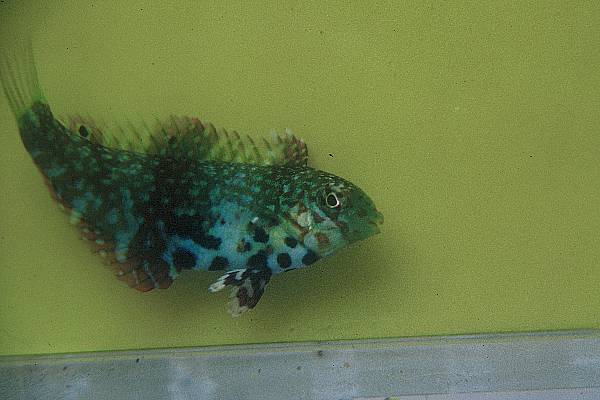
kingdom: Animalia
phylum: Chordata
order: Perciformes
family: Labridae
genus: Macropharyngodon
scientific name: Macropharyngodon bipartitus
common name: Divided wrasse
